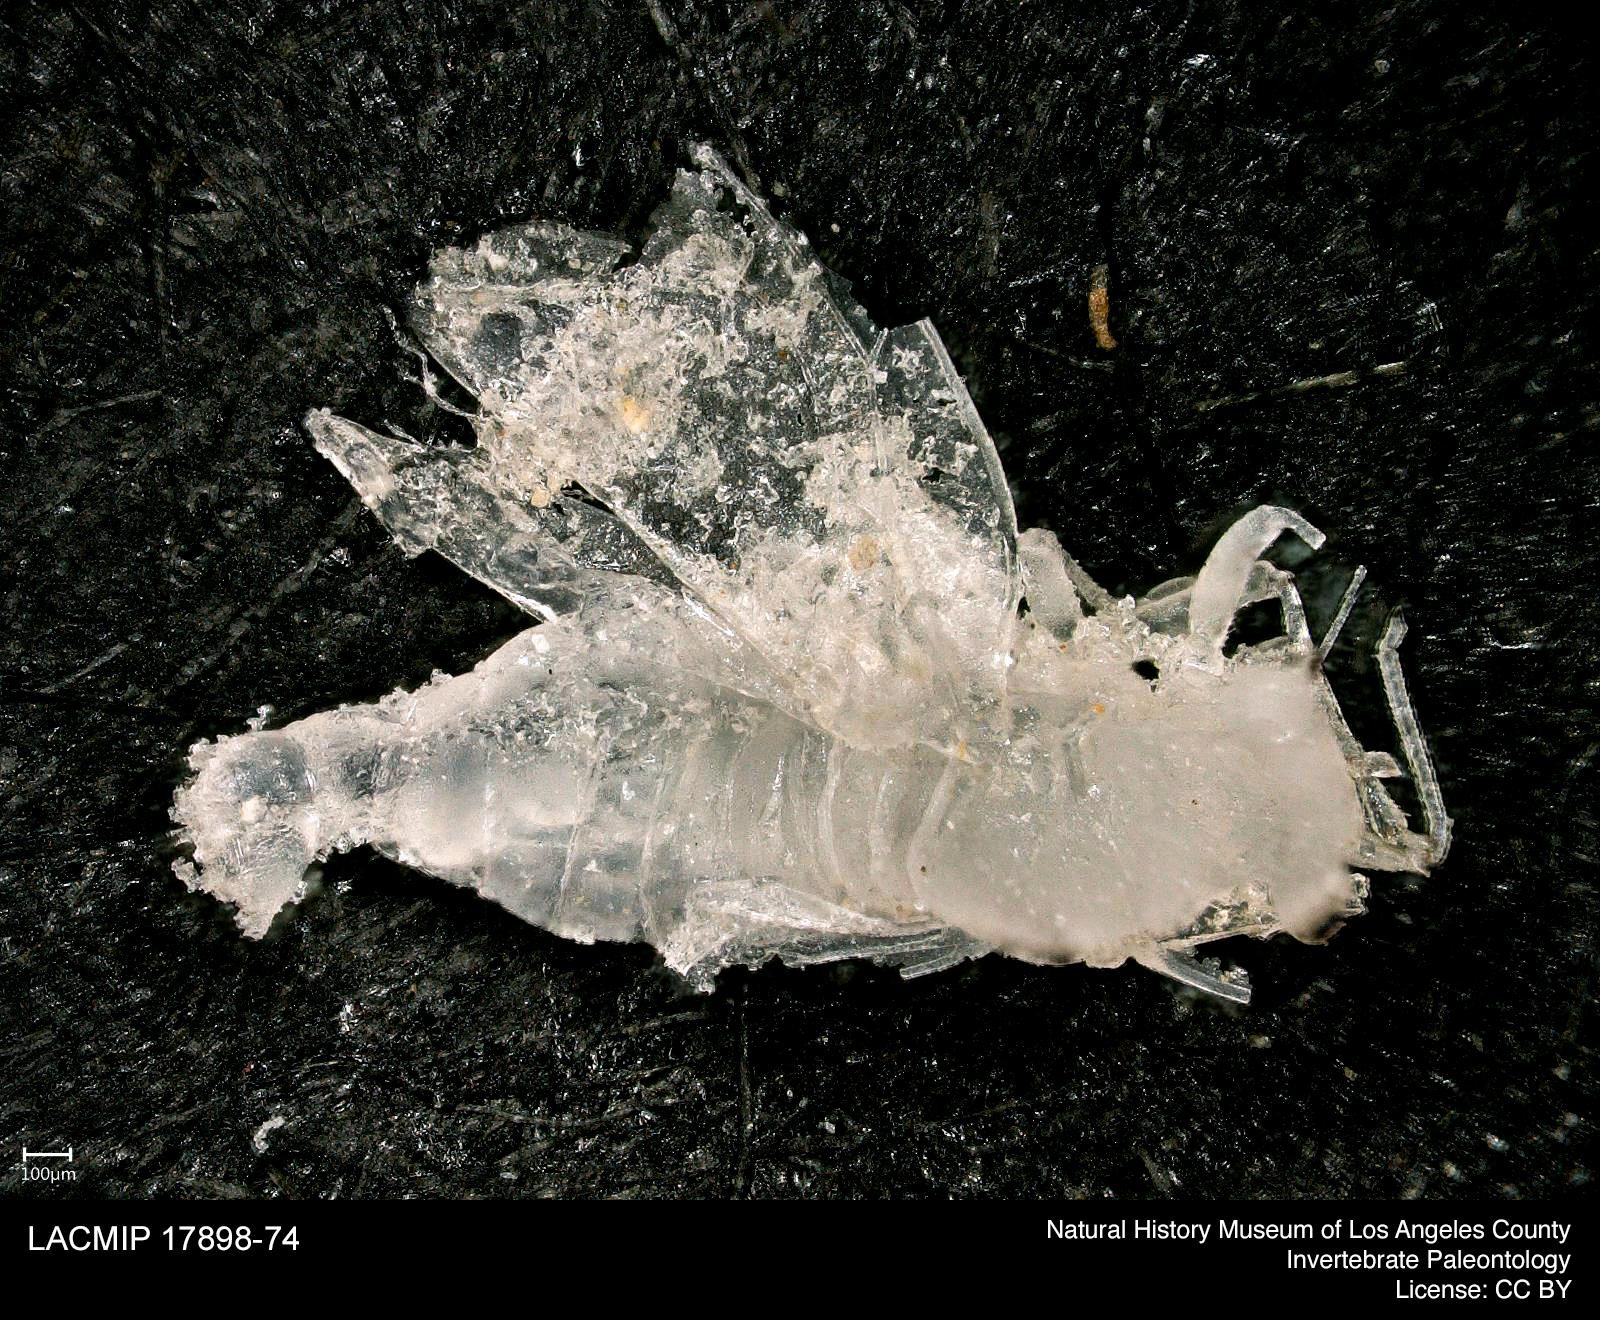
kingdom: Animalia
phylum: Arthropoda
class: Insecta
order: Hemiptera
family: Psyllidae
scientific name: Psyllidae
